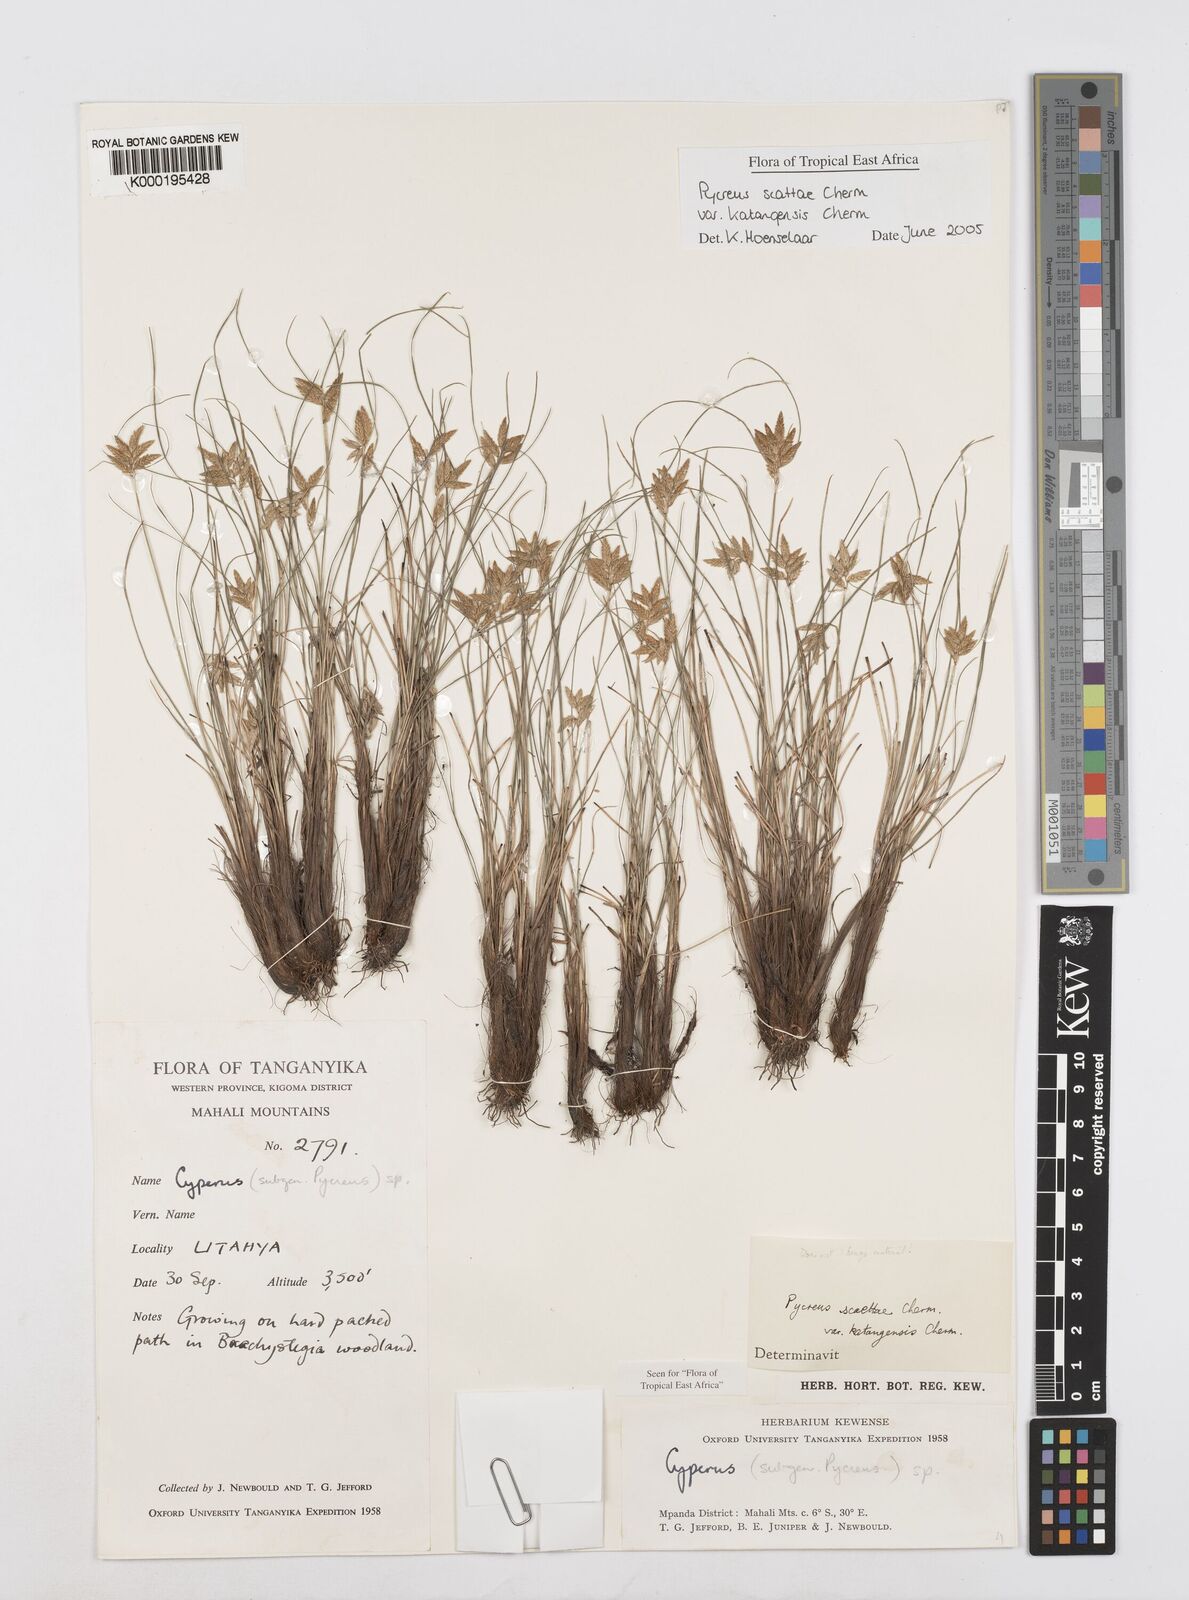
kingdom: Plantae
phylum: Tracheophyta
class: Liliopsida
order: Poales
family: Cyperaceae
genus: Cyperus
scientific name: Cyperus
